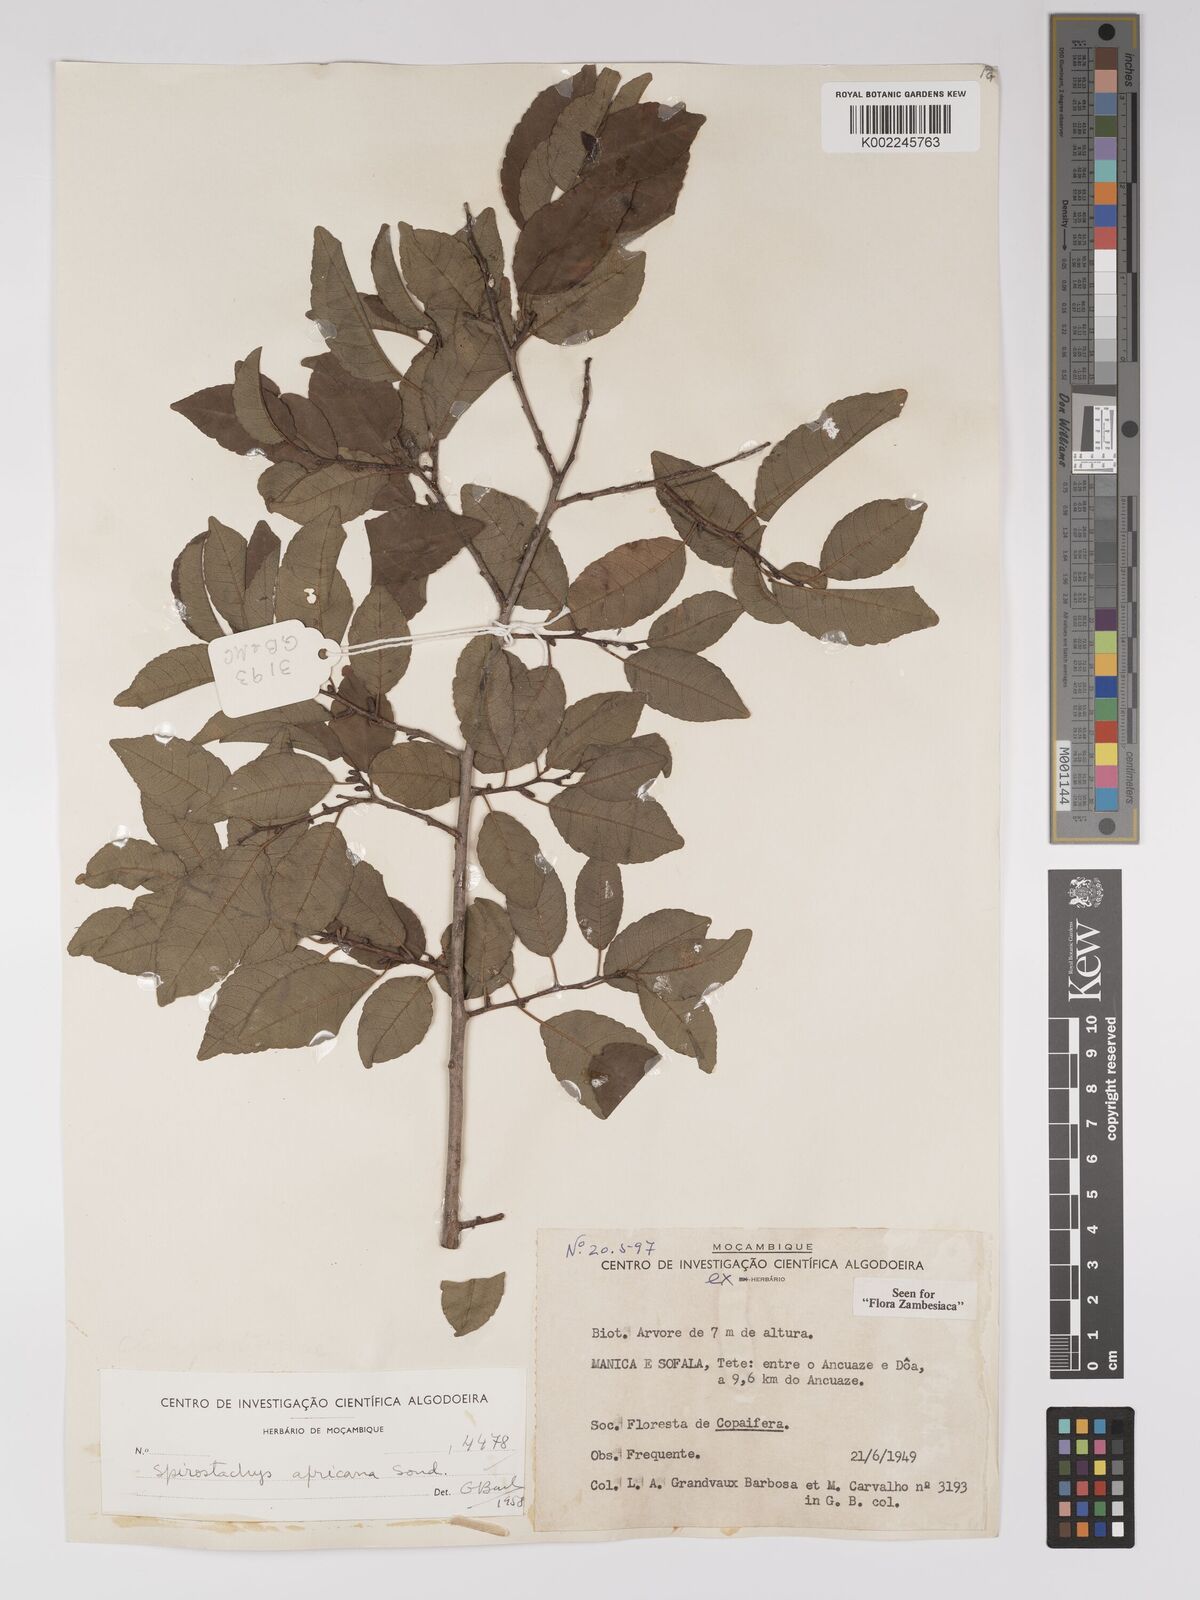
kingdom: Plantae
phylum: Tracheophyta
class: Magnoliopsida
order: Malpighiales
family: Euphorbiaceae
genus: Spirostachys
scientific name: Spirostachys africana
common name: Tamboti
